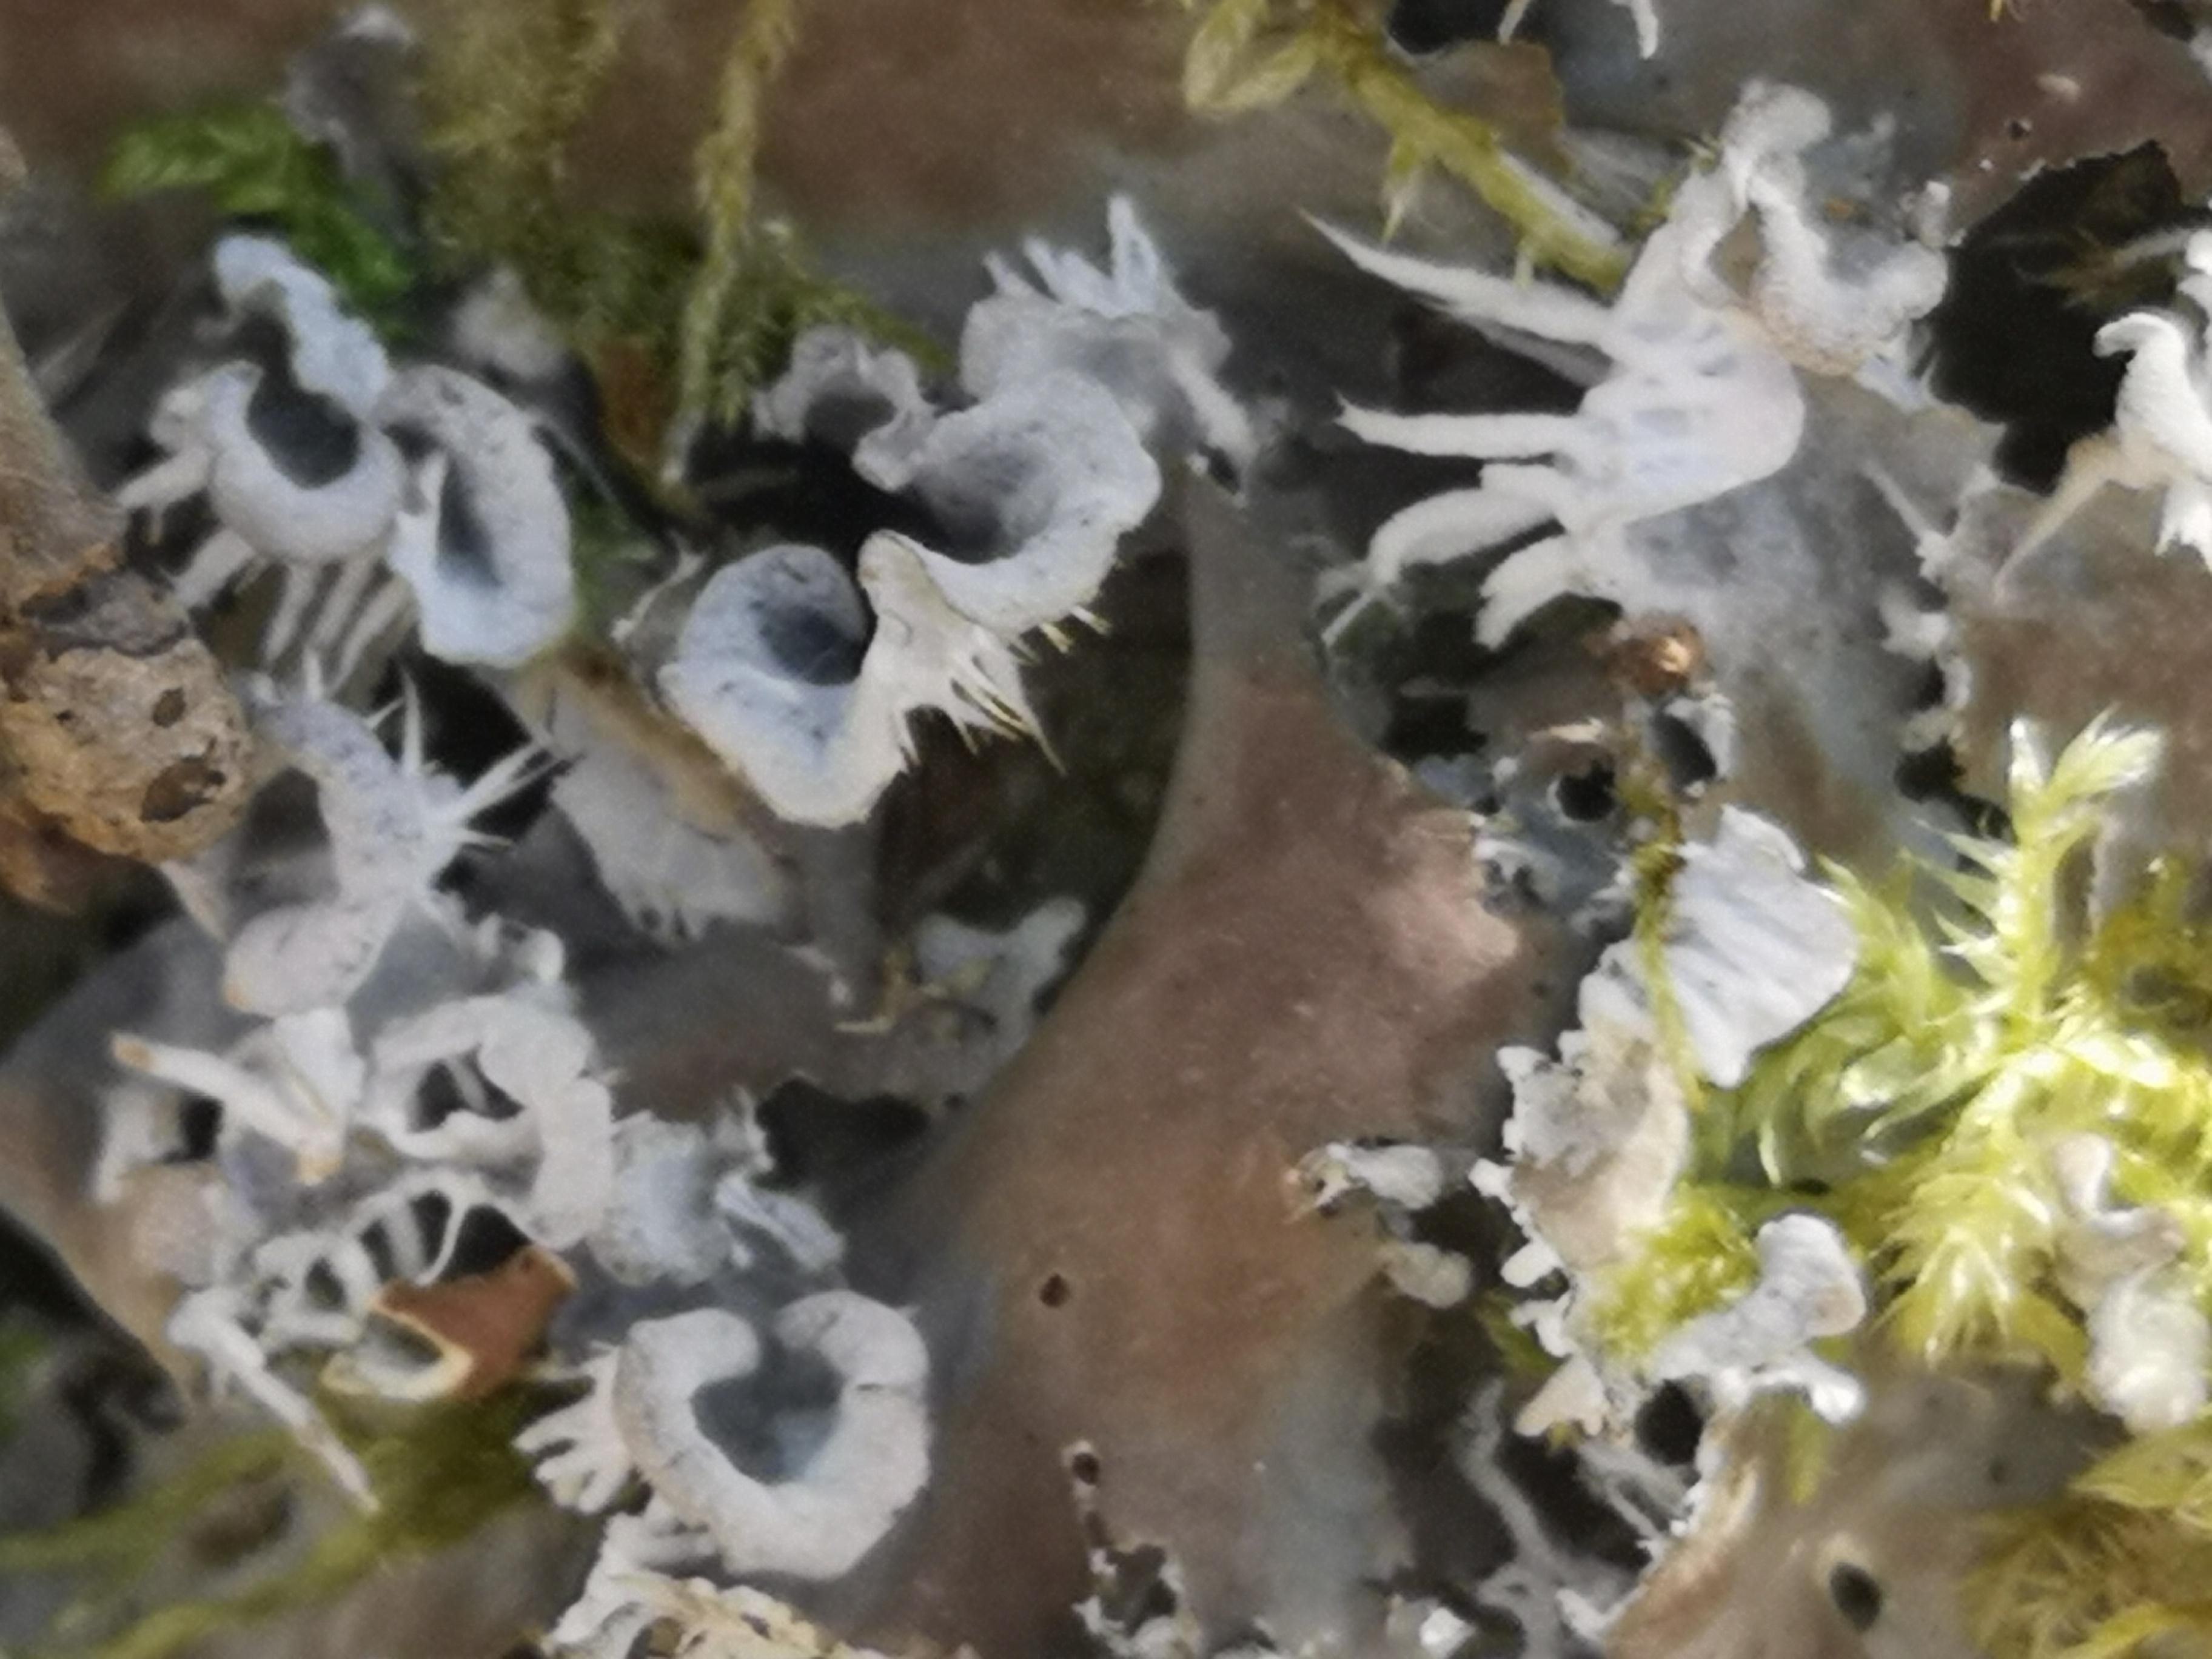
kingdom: Fungi
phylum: Ascomycota
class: Lecanoromycetes
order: Peltigerales
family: Peltigeraceae
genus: Peltigera
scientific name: Peltigera membranacea
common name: tynd skjoldlav
